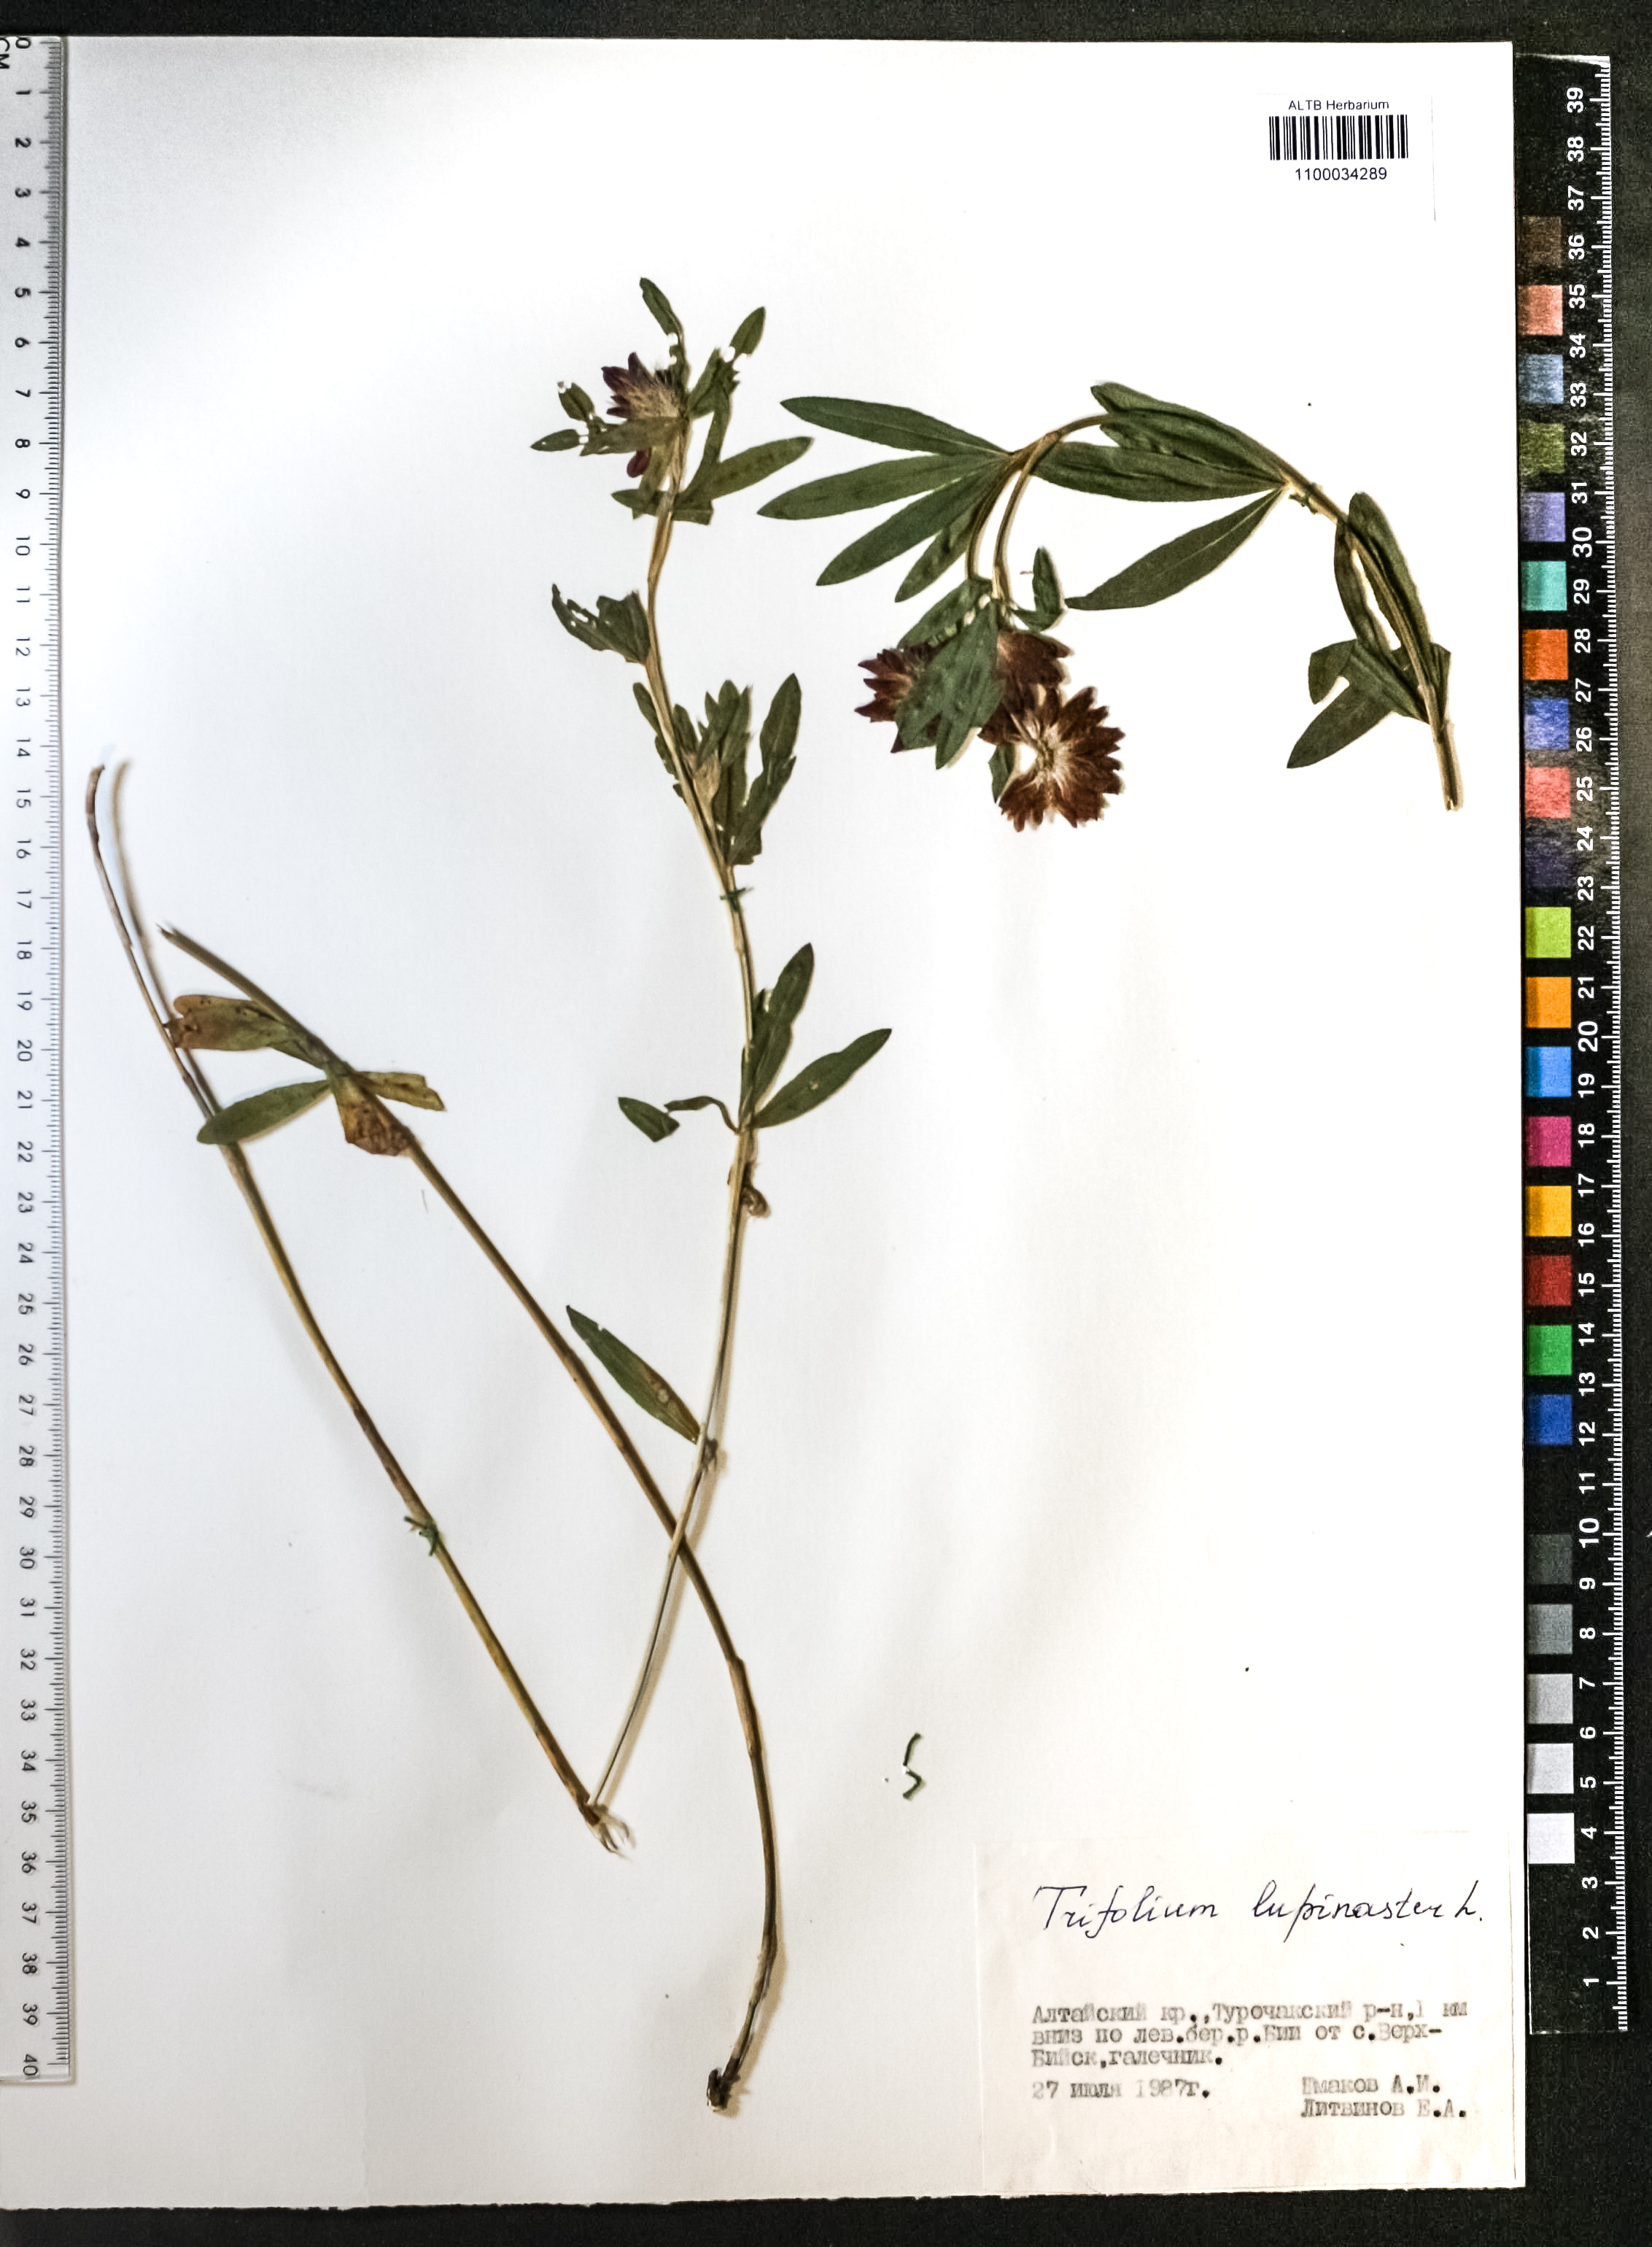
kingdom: Plantae
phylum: Tracheophyta
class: Magnoliopsida
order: Fabales
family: Fabaceae
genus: Trifolium
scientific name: Trifolium lupinaster
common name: Lupine clover
